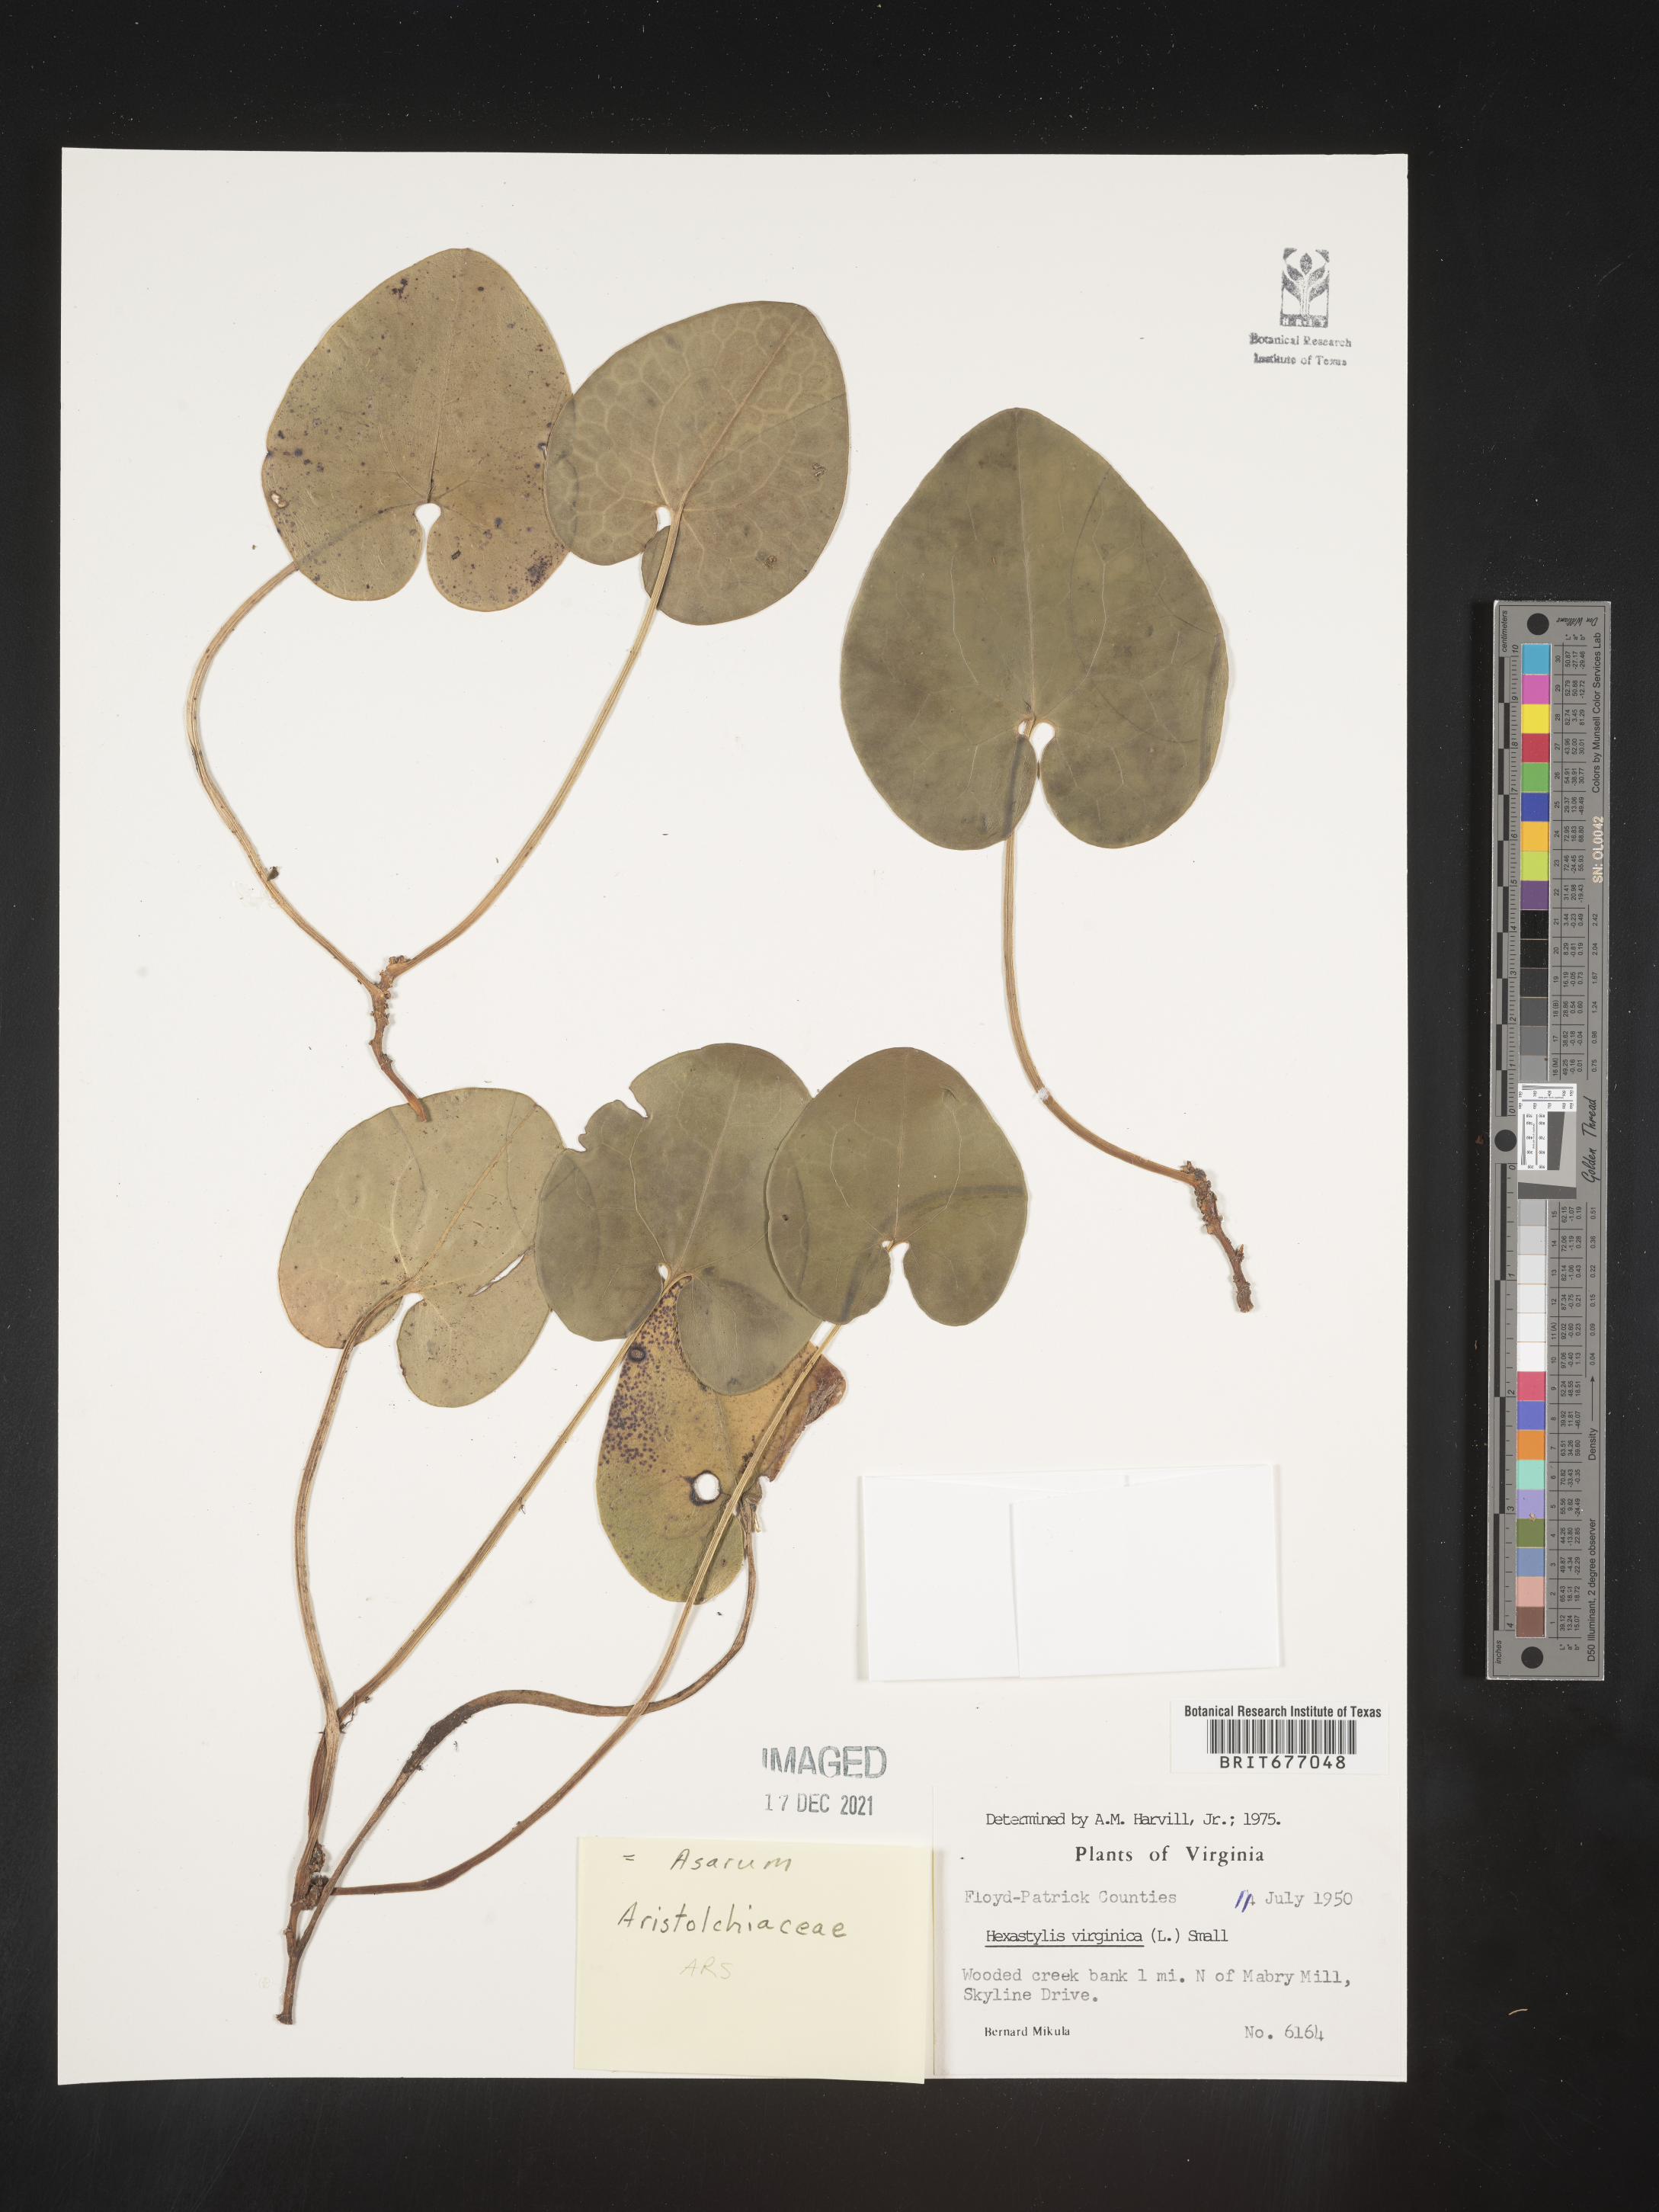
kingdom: Plantae
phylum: Tracheophyta
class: Magnoliopsida
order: Piperales
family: Aristolochiaceae
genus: Asarum
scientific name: Asarum
